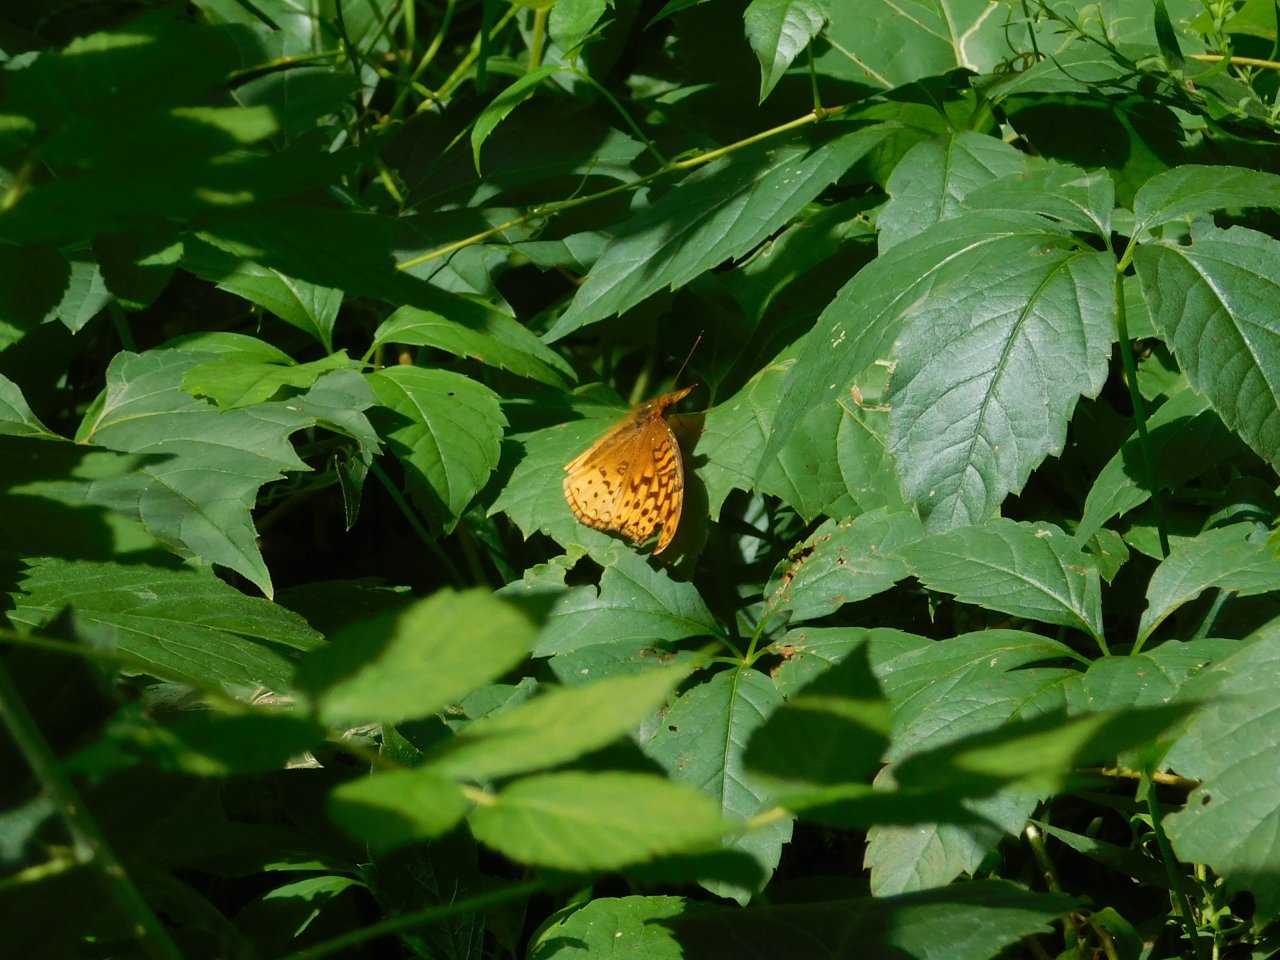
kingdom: Animalia
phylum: Arthropoda
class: Insecta
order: Lepidoptera
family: Nymphalidae
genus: Speyeria
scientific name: Speyeria cybele
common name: Great Spangled Fritillary
